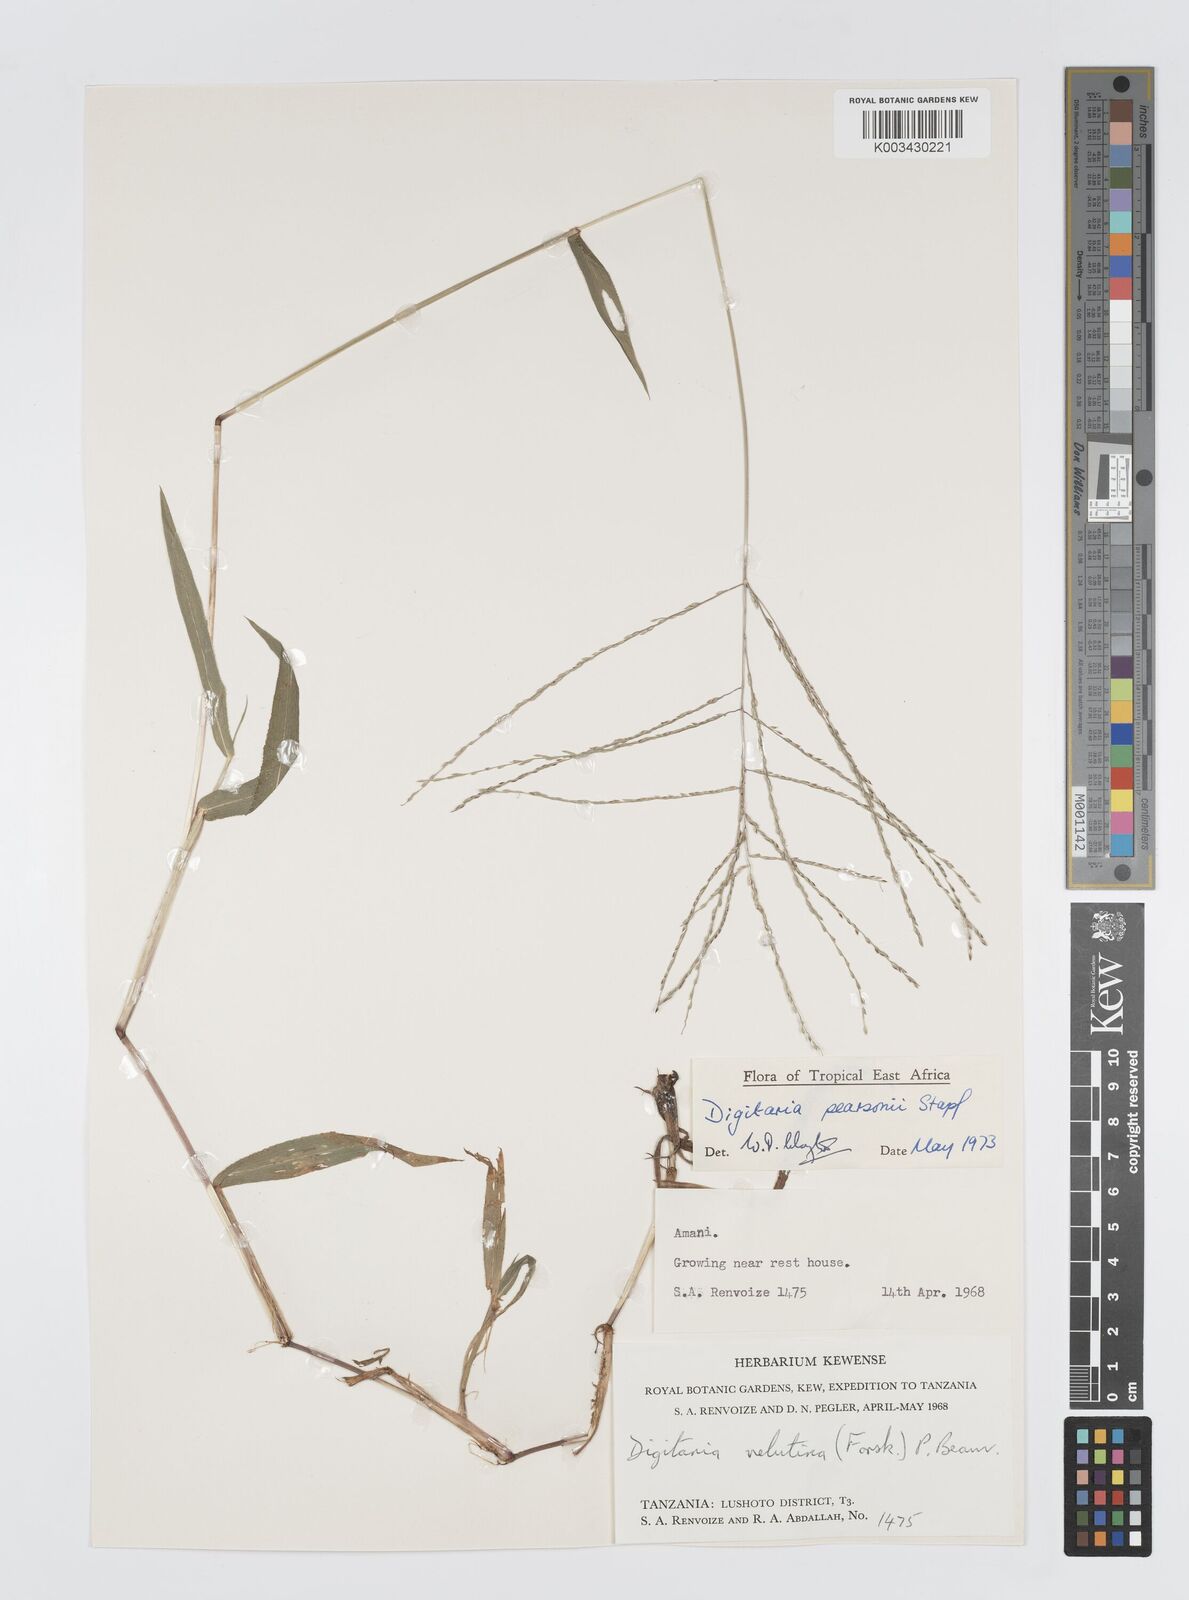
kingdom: Plantae
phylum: Tracheophyta
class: Liliopsida
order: Poales
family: Poaceae
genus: Digitaria
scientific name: Digitaria pearsonii
